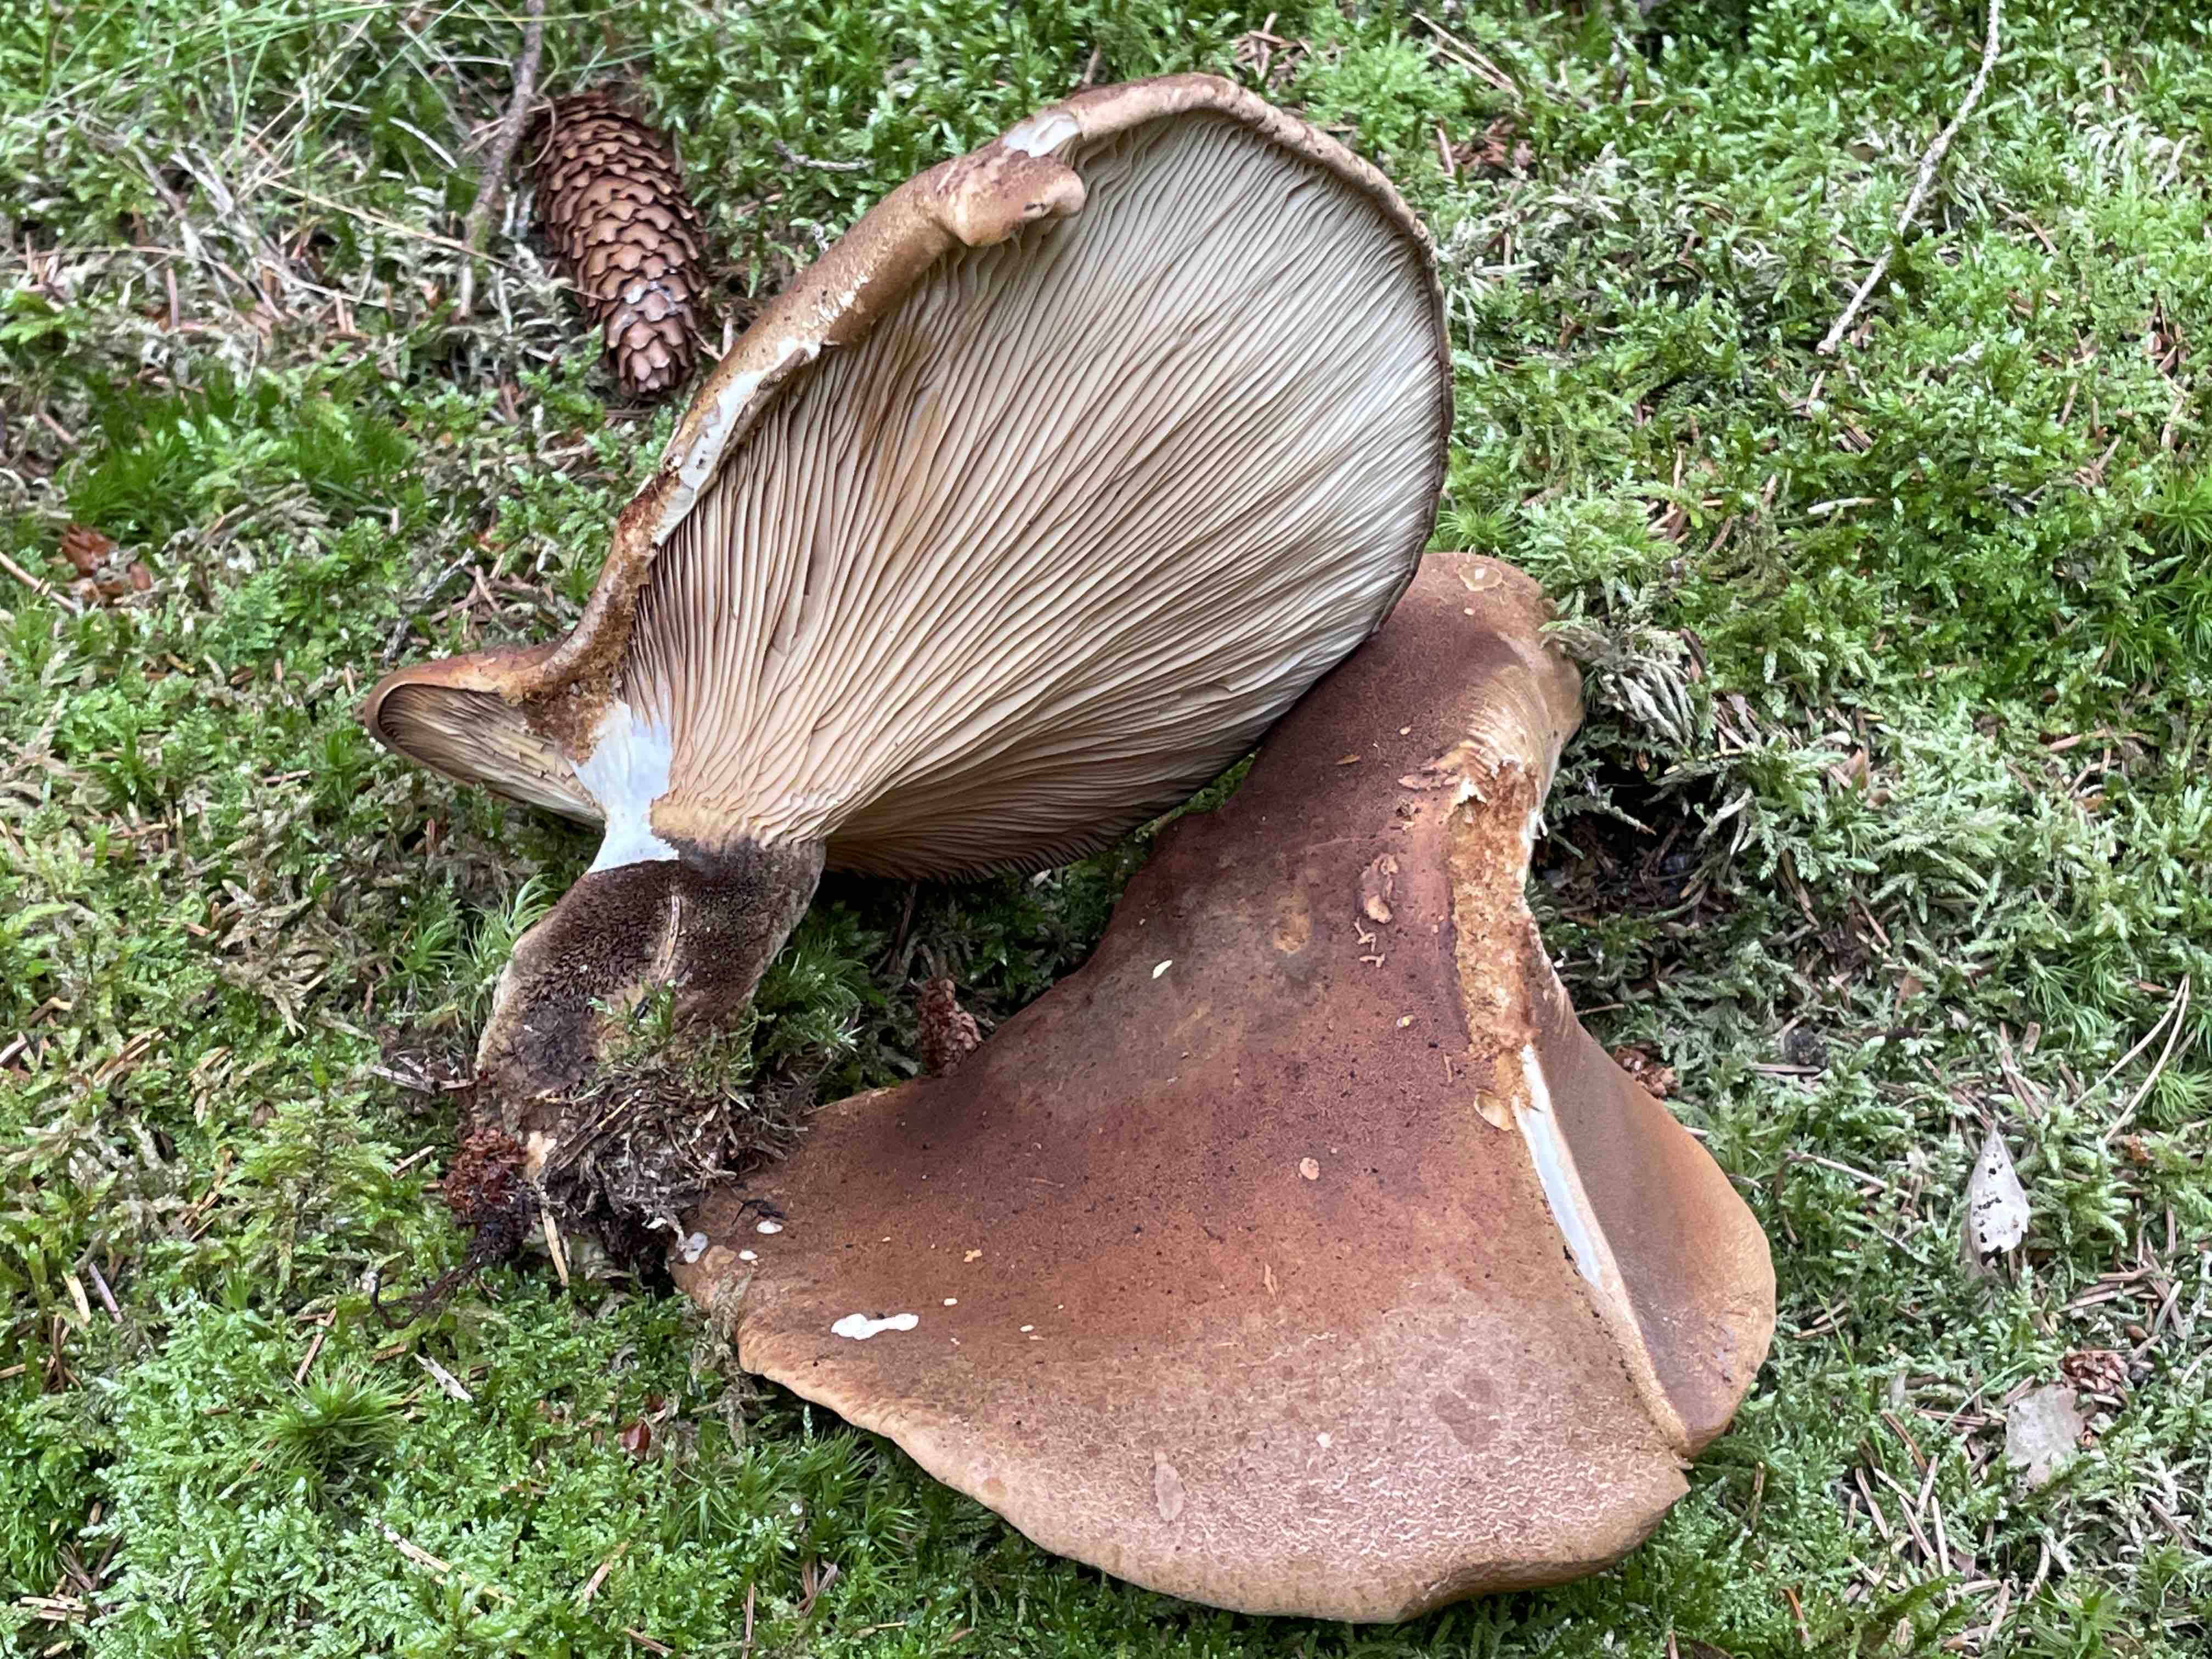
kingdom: Fungi
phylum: Basidiomycota
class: Agaricomycetes
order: Boletales
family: Tapinellaceae
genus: Tapinella
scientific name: Tapinella atrotomentosa
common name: sortfiltet viftesvamp
